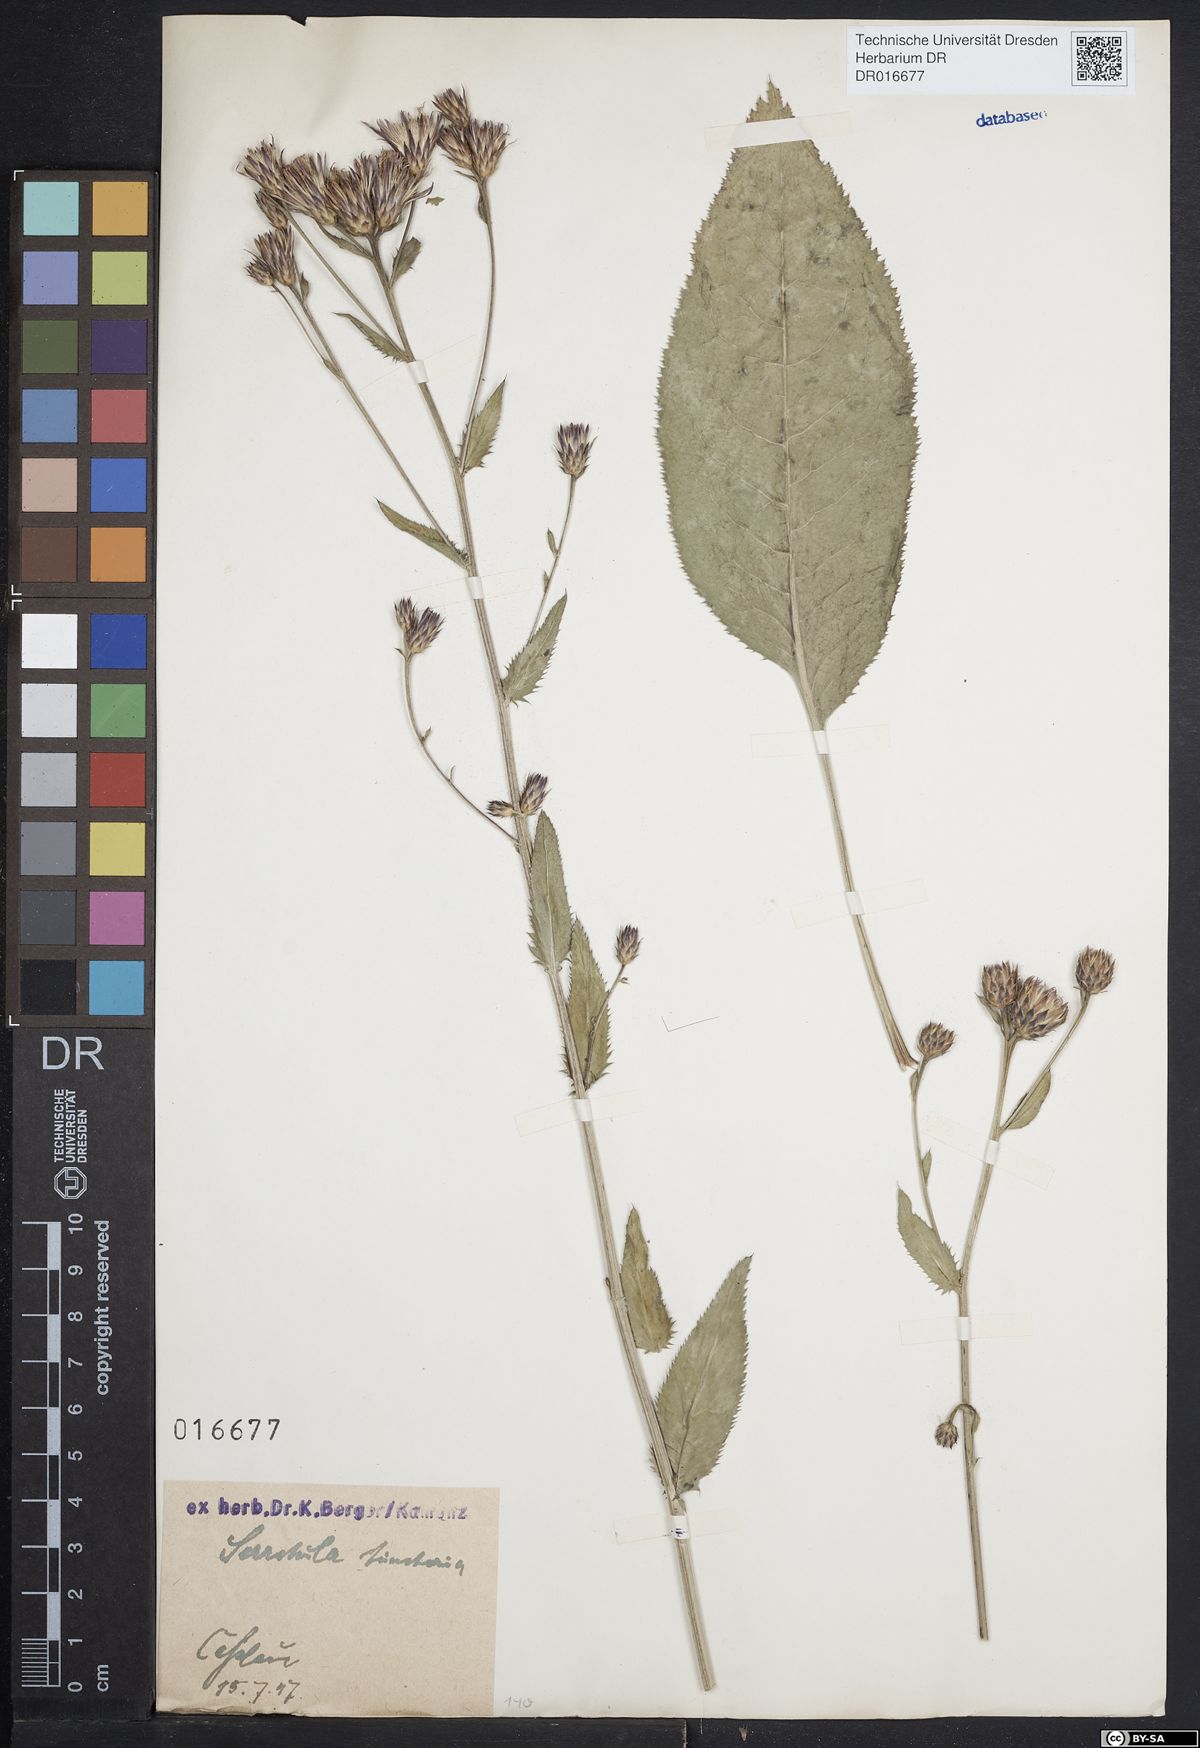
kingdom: Plantae
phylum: Tracheophyta
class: Magnoliopsida
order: Asterales
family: Asteraceae
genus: Serratula
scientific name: Serratula tinctoria
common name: Saw-wort
